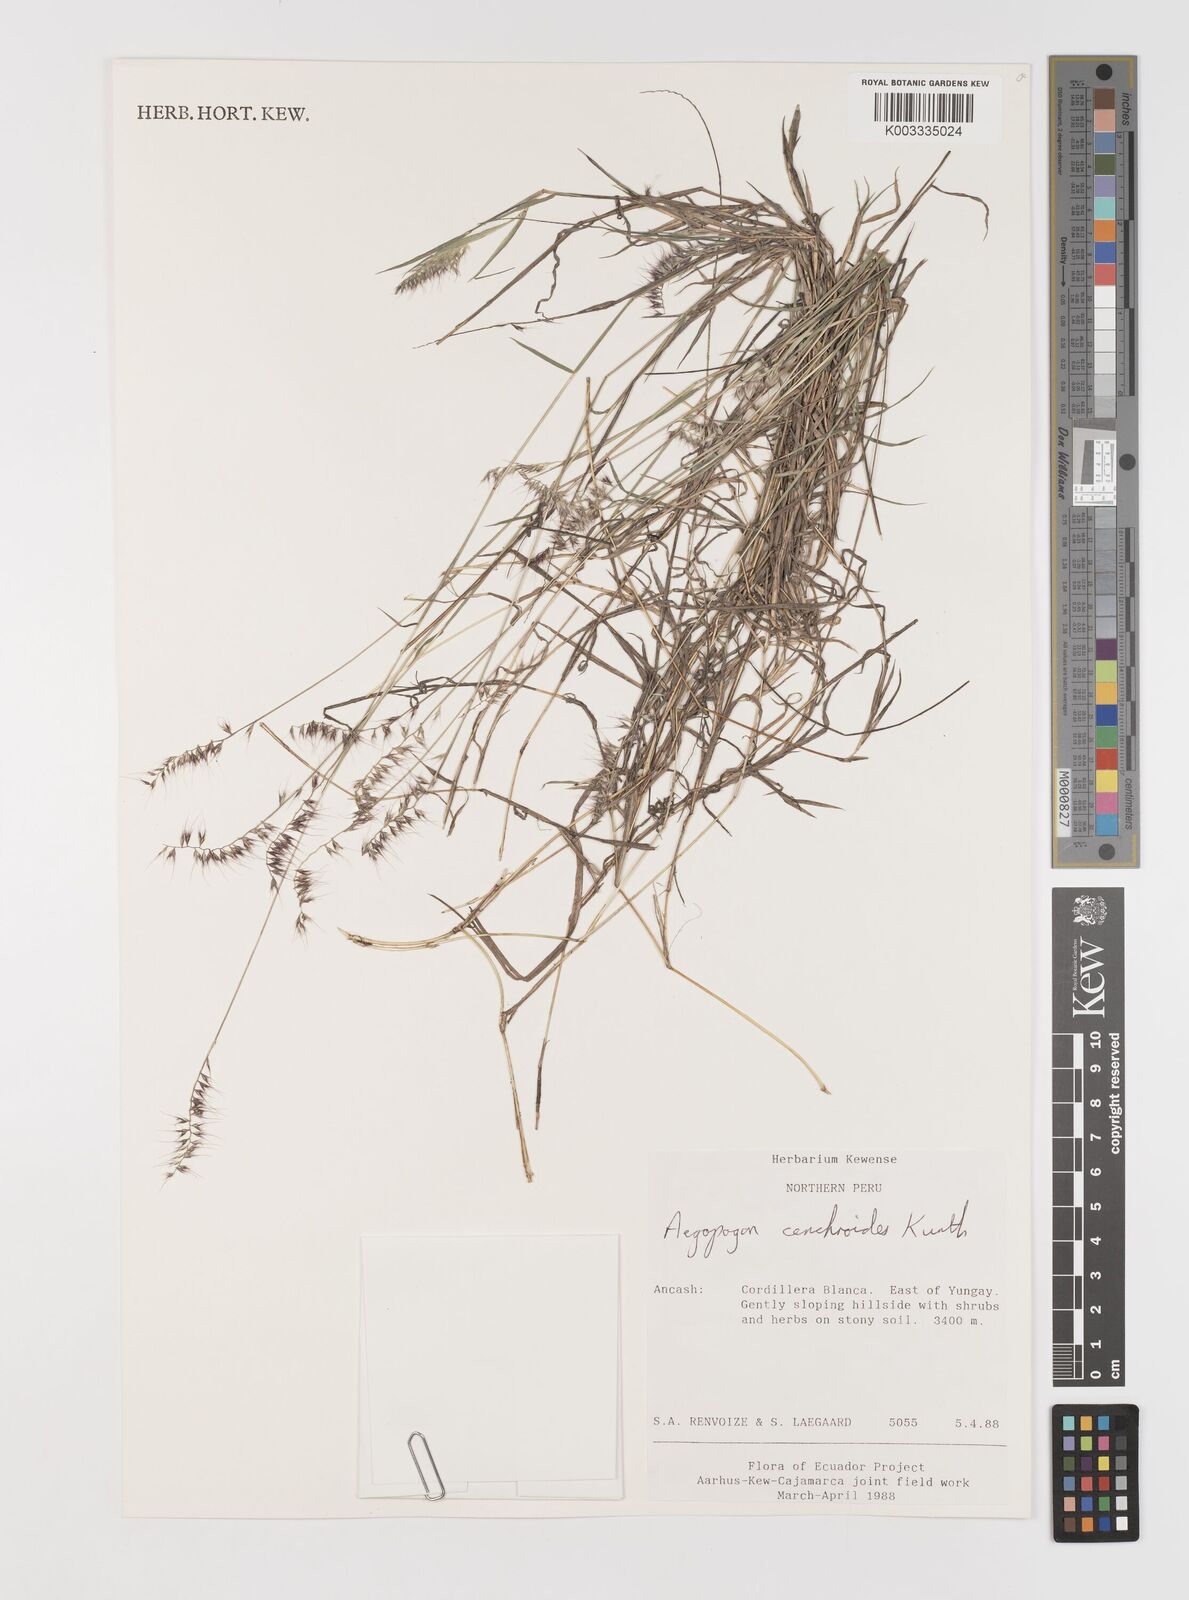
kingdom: Plantae
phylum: Tracheophyta
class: Liliopsida
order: Poales
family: Poaceae
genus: Muhlenbergia
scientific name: Muhlenbergia cenchroides
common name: Relaxgrass
